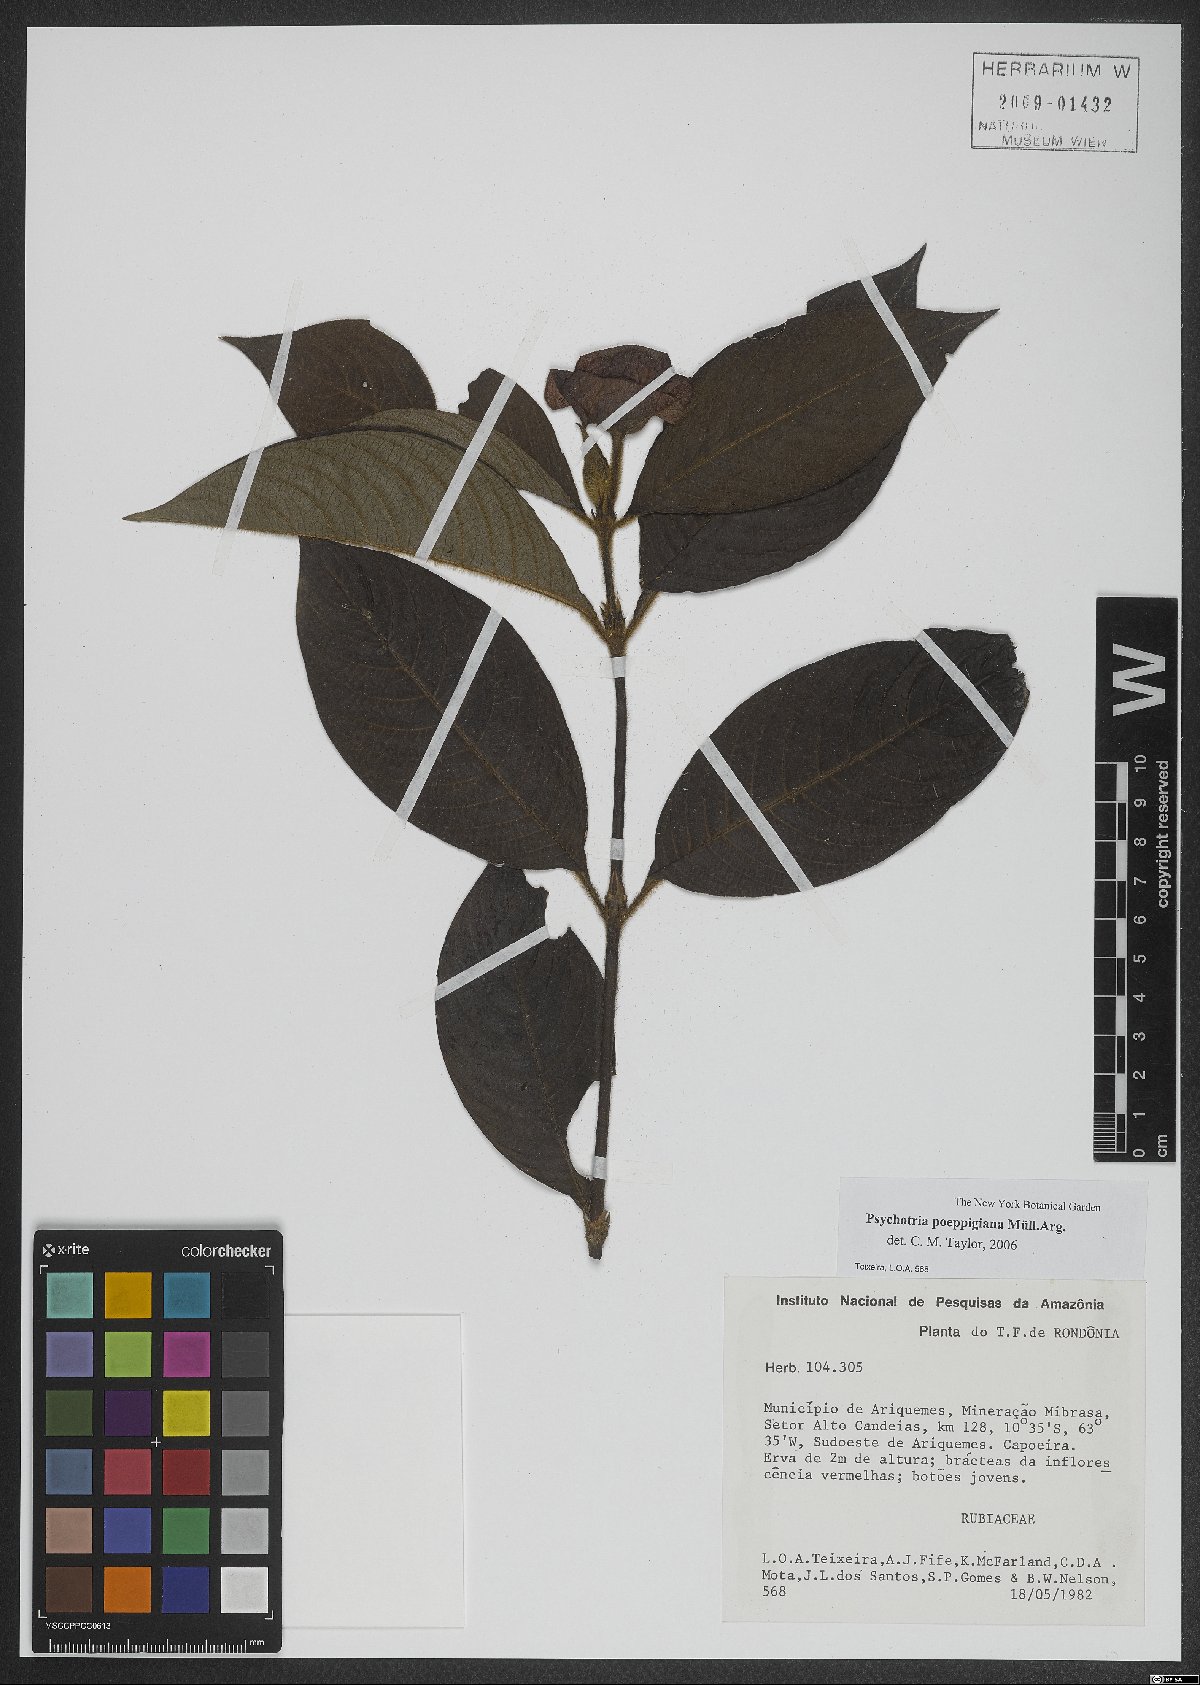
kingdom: Plantae
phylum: Tracheophyta
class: Magnoliopsida
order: Gentianales
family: Rubiaceae
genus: Palicourea
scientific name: Palicourea tomentosa
